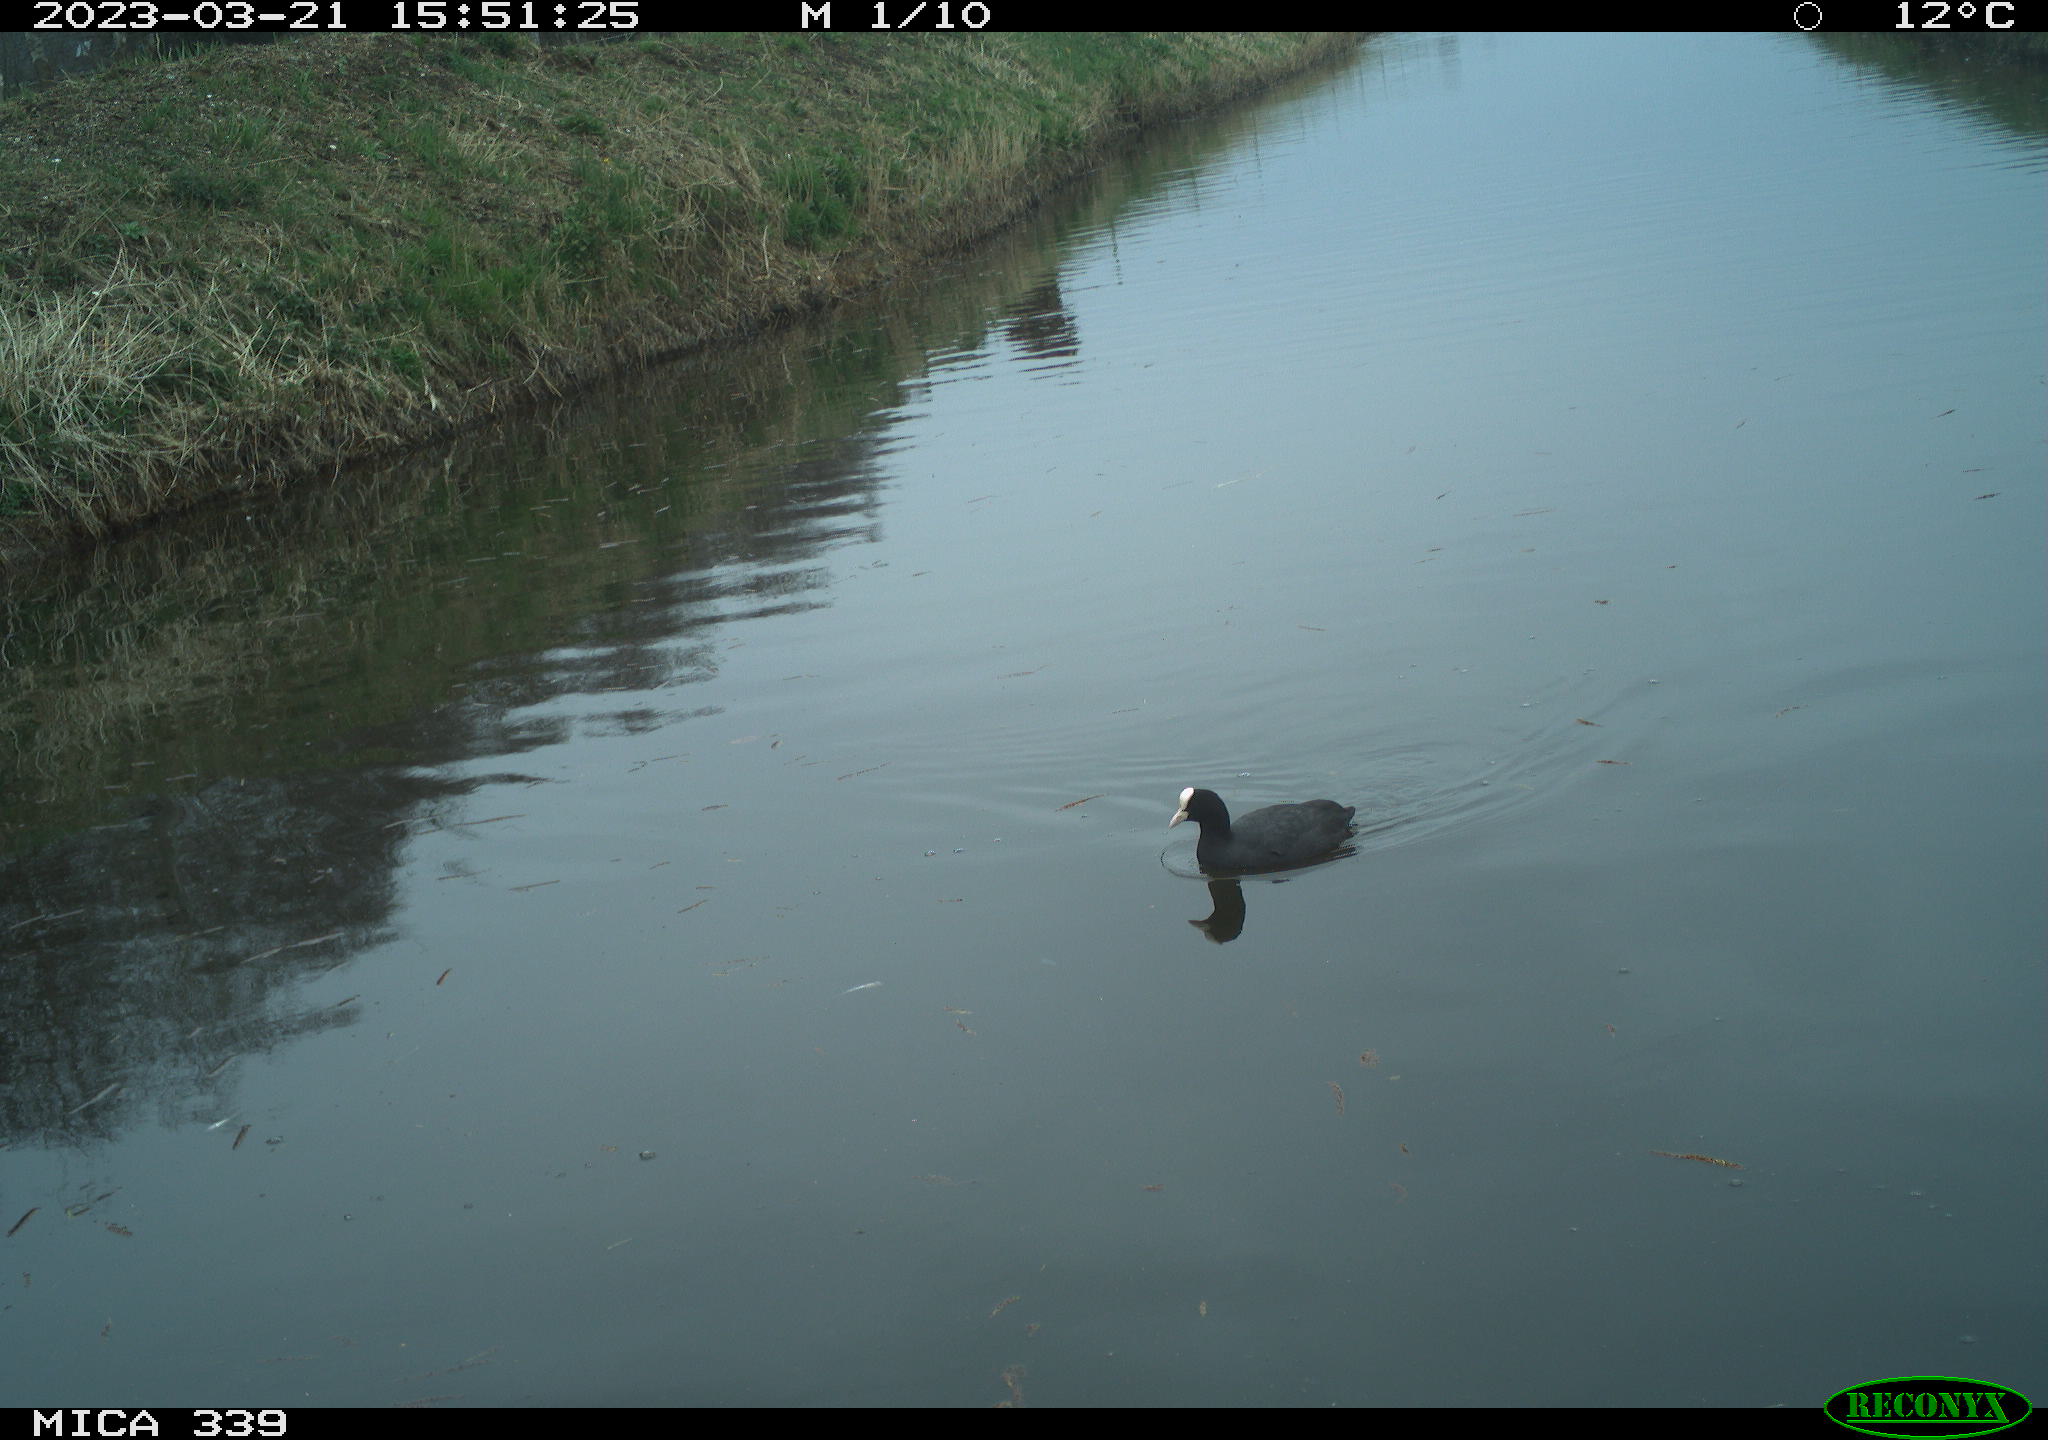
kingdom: Animalia
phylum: Chordata
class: Aves
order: Gruiformes
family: Rallidae
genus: Fulica
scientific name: Fulica atra
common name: Eurasian coot
